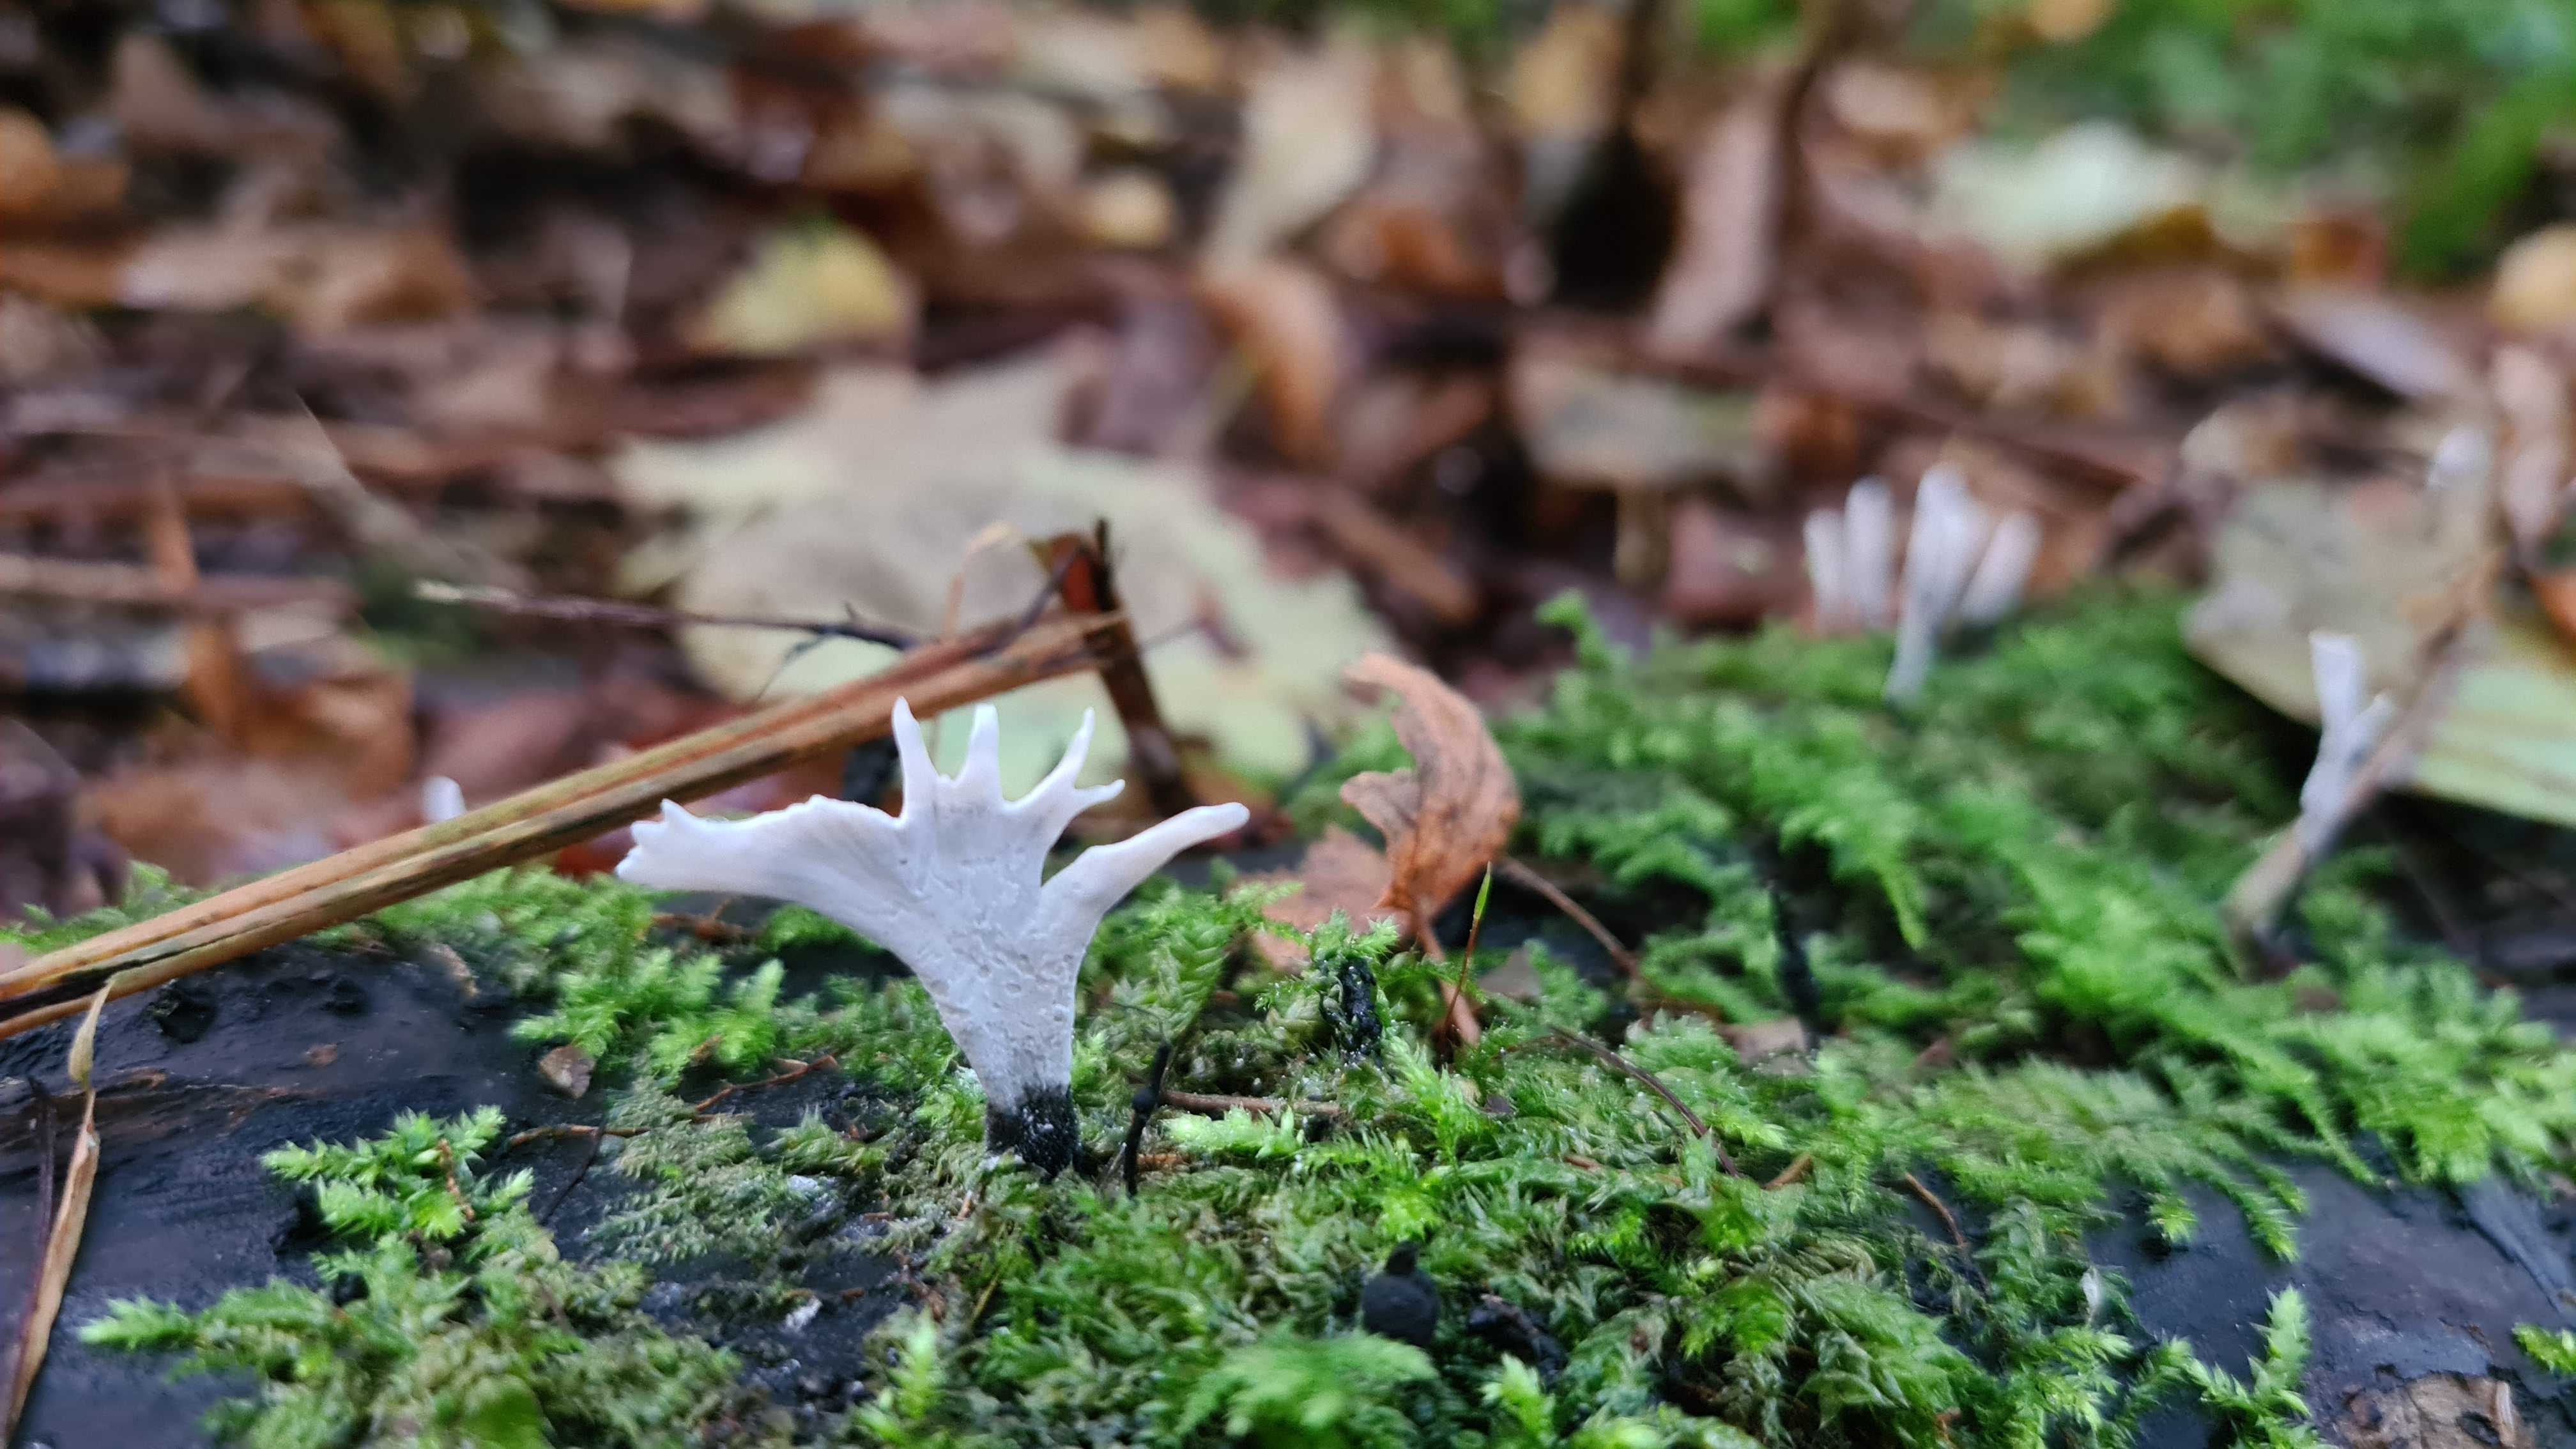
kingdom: Fungi
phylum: Ascomycota
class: Sordariomycetes
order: Xylariales
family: Xylariaceae
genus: Xylaria
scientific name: Xylaria hypoxylon
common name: grenet stødsvamp
